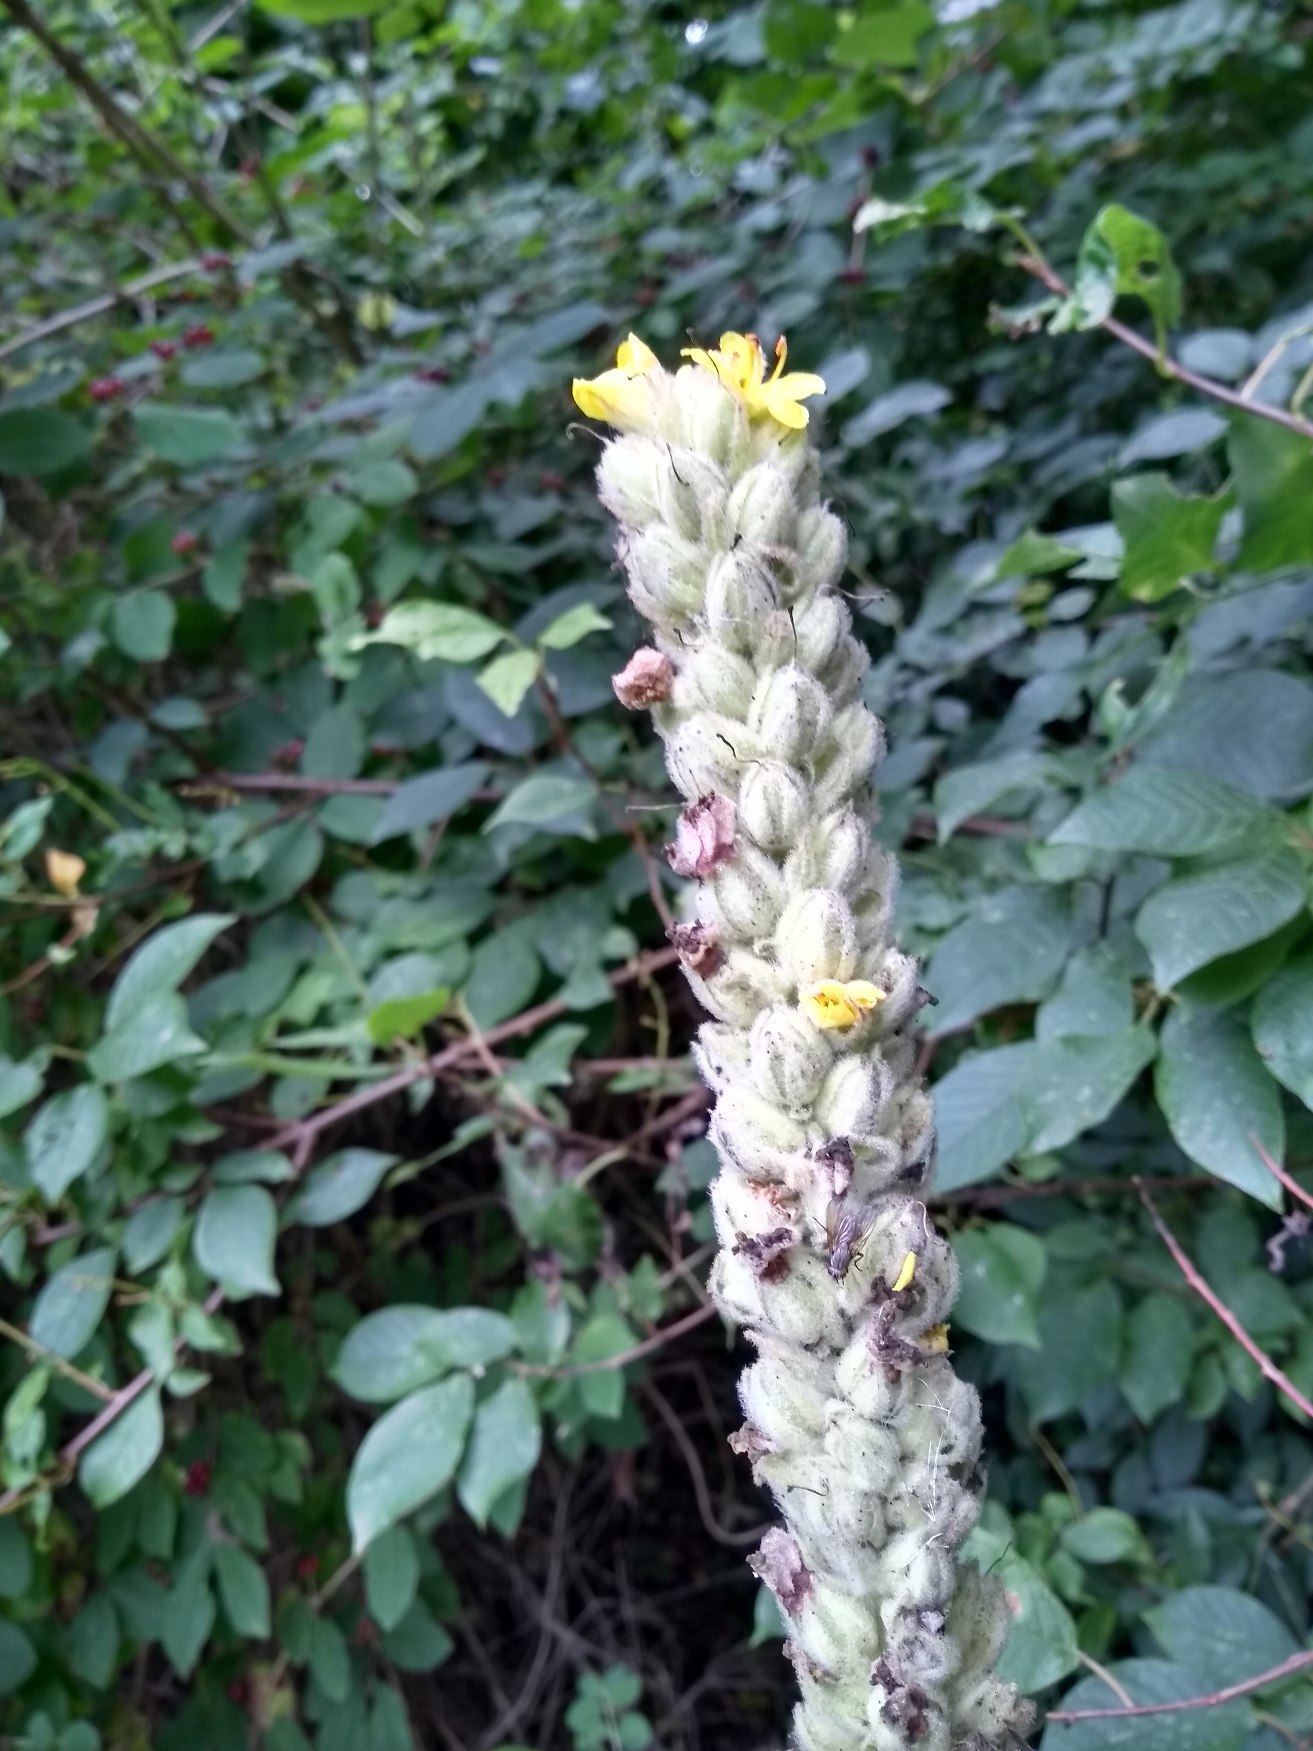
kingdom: Plantae
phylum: Tracheophyta
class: Magnoliopsida
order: Lamiales
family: Scrophulariaceae
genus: Verbascum
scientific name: Verbascum thapsus
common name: Filtbladet kongelys
